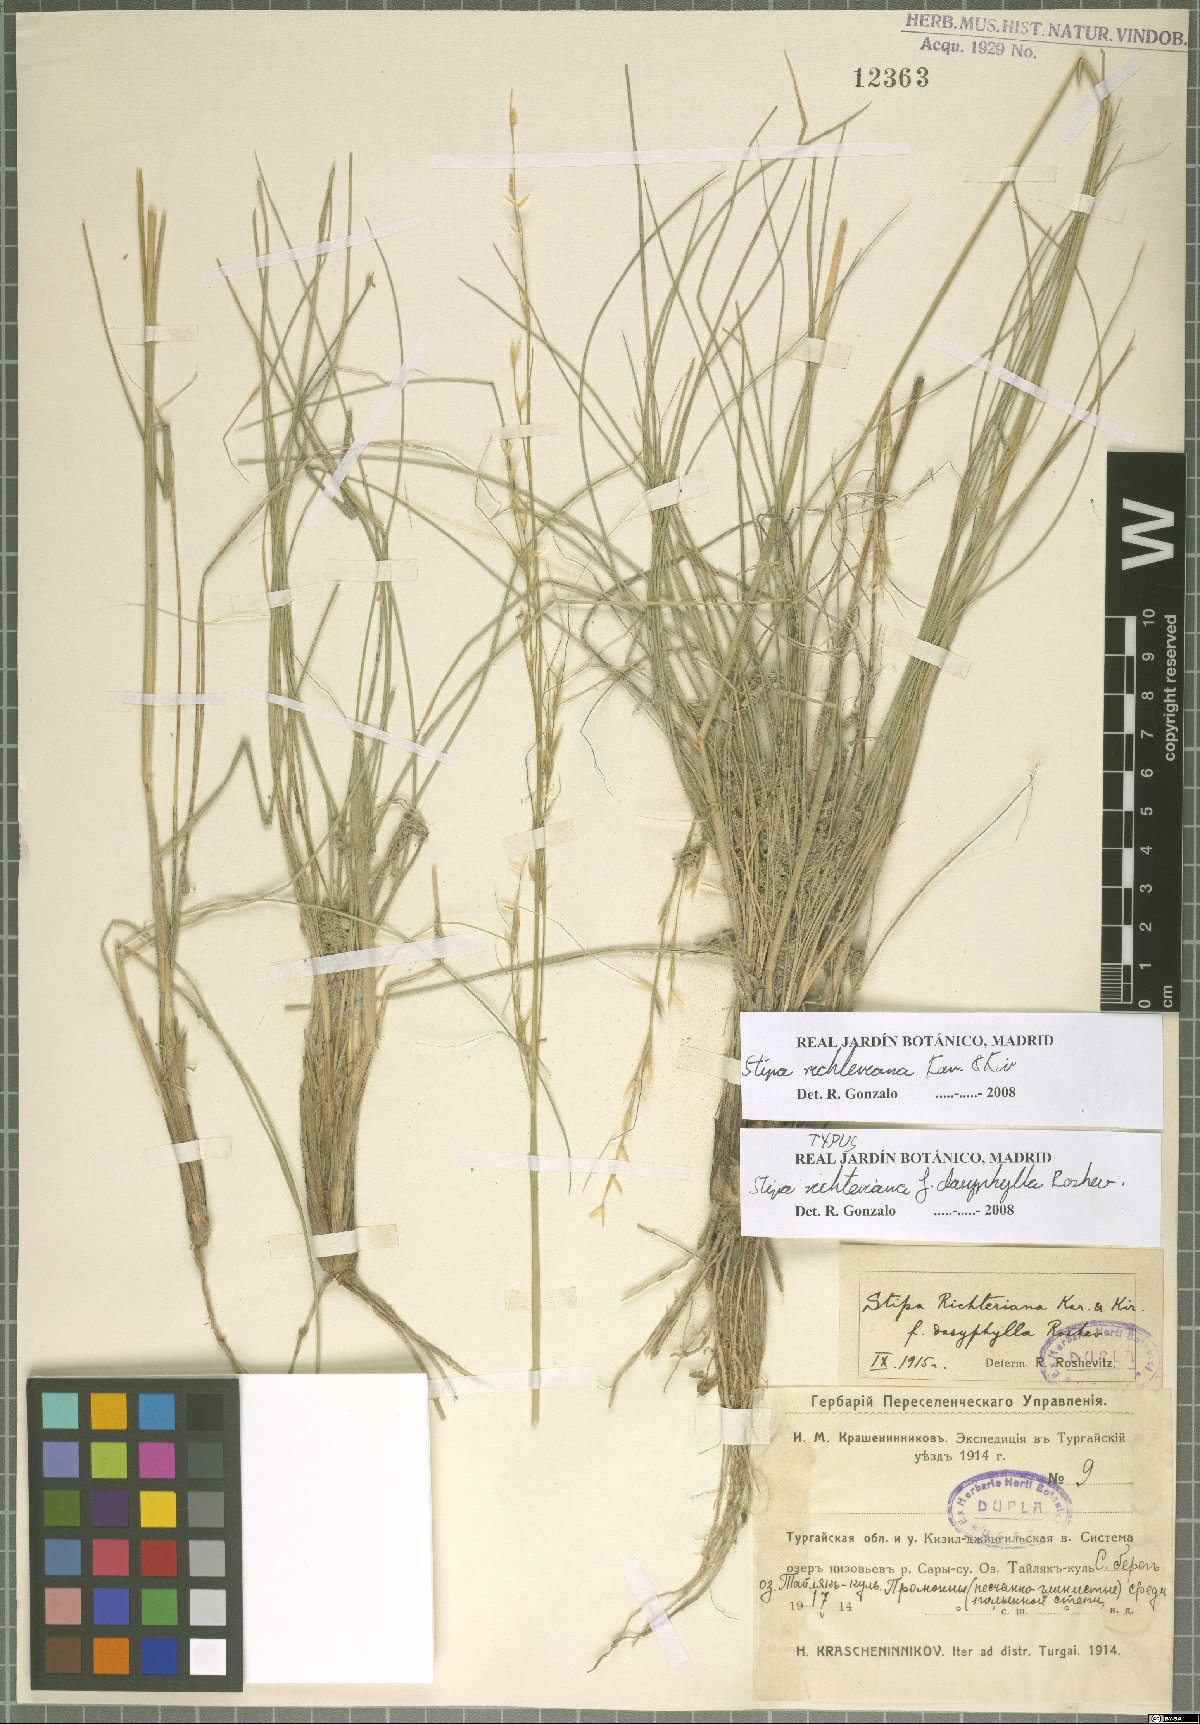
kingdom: Plantae
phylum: Tracheophyta
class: Liliopsida
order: Poales
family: Poaceae
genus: Stipa
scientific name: Stipa richteriana
